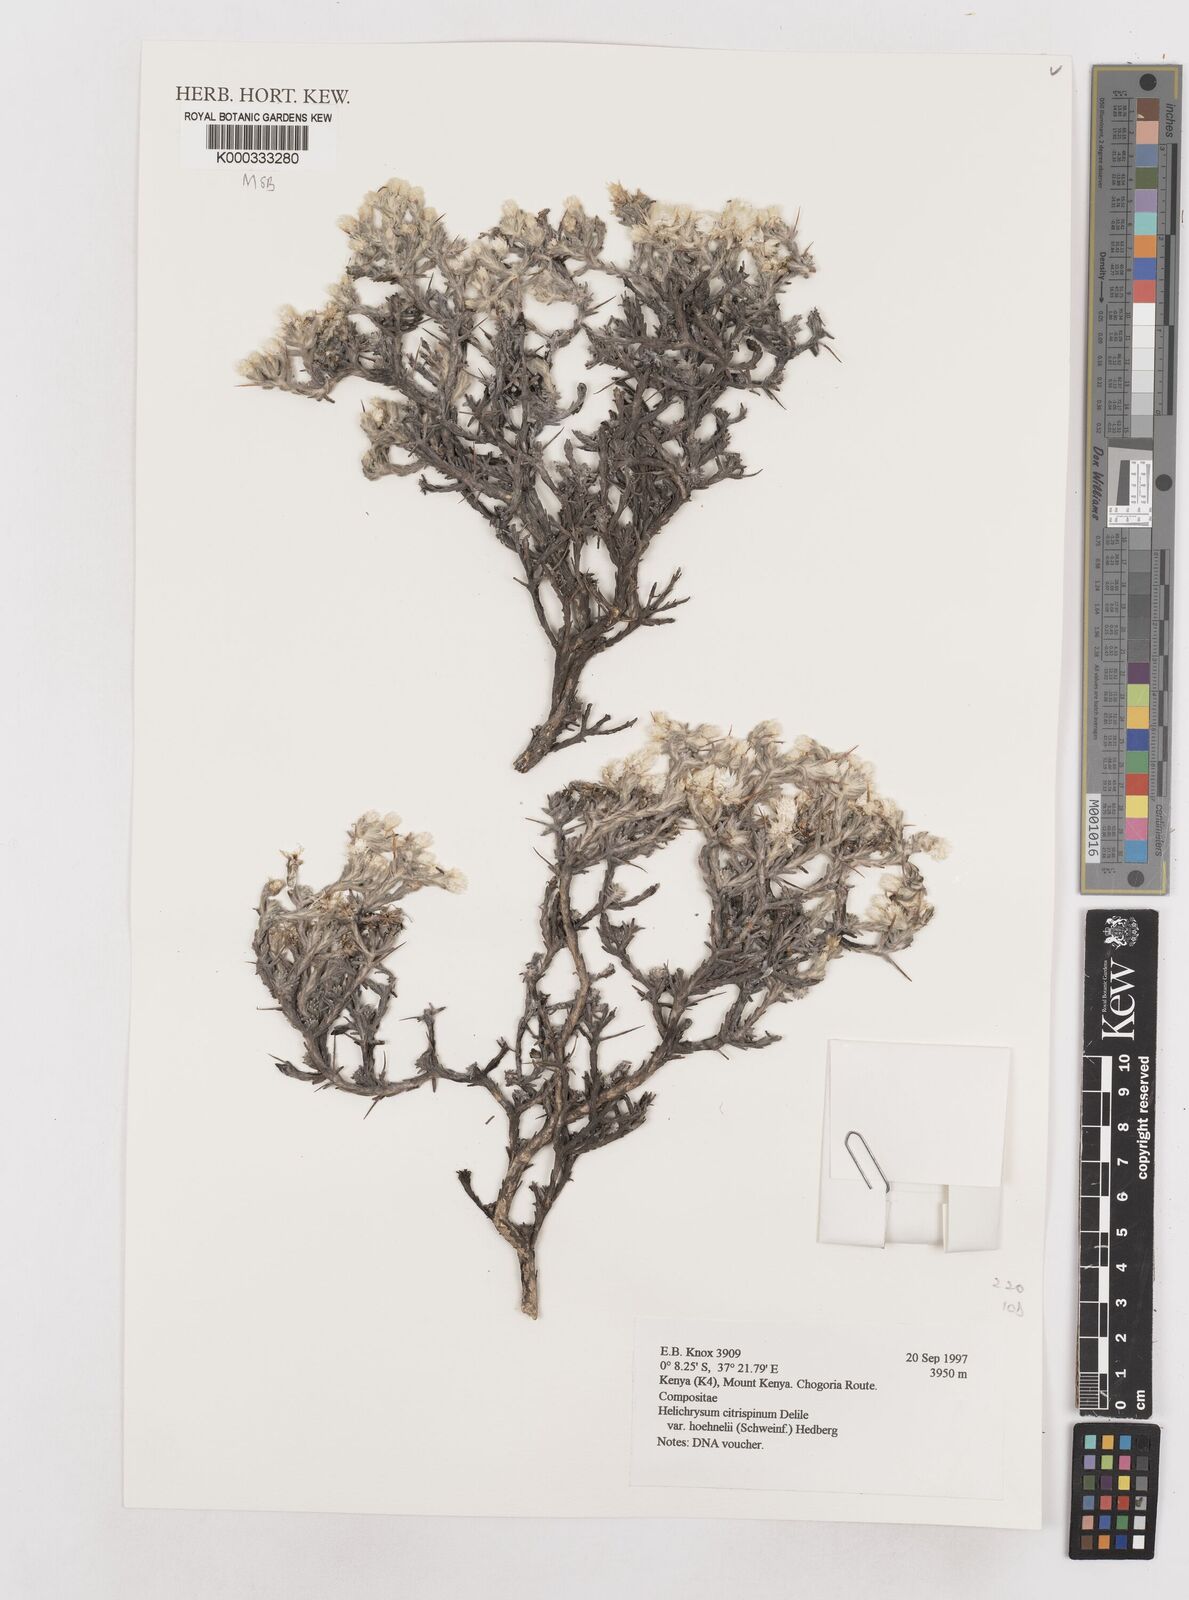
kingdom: Plantae
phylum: Tracheophyta
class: Magnoliopsida
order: Asterales
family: Asteraceae
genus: Helichrysum
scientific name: Helichrysum citrispinum
